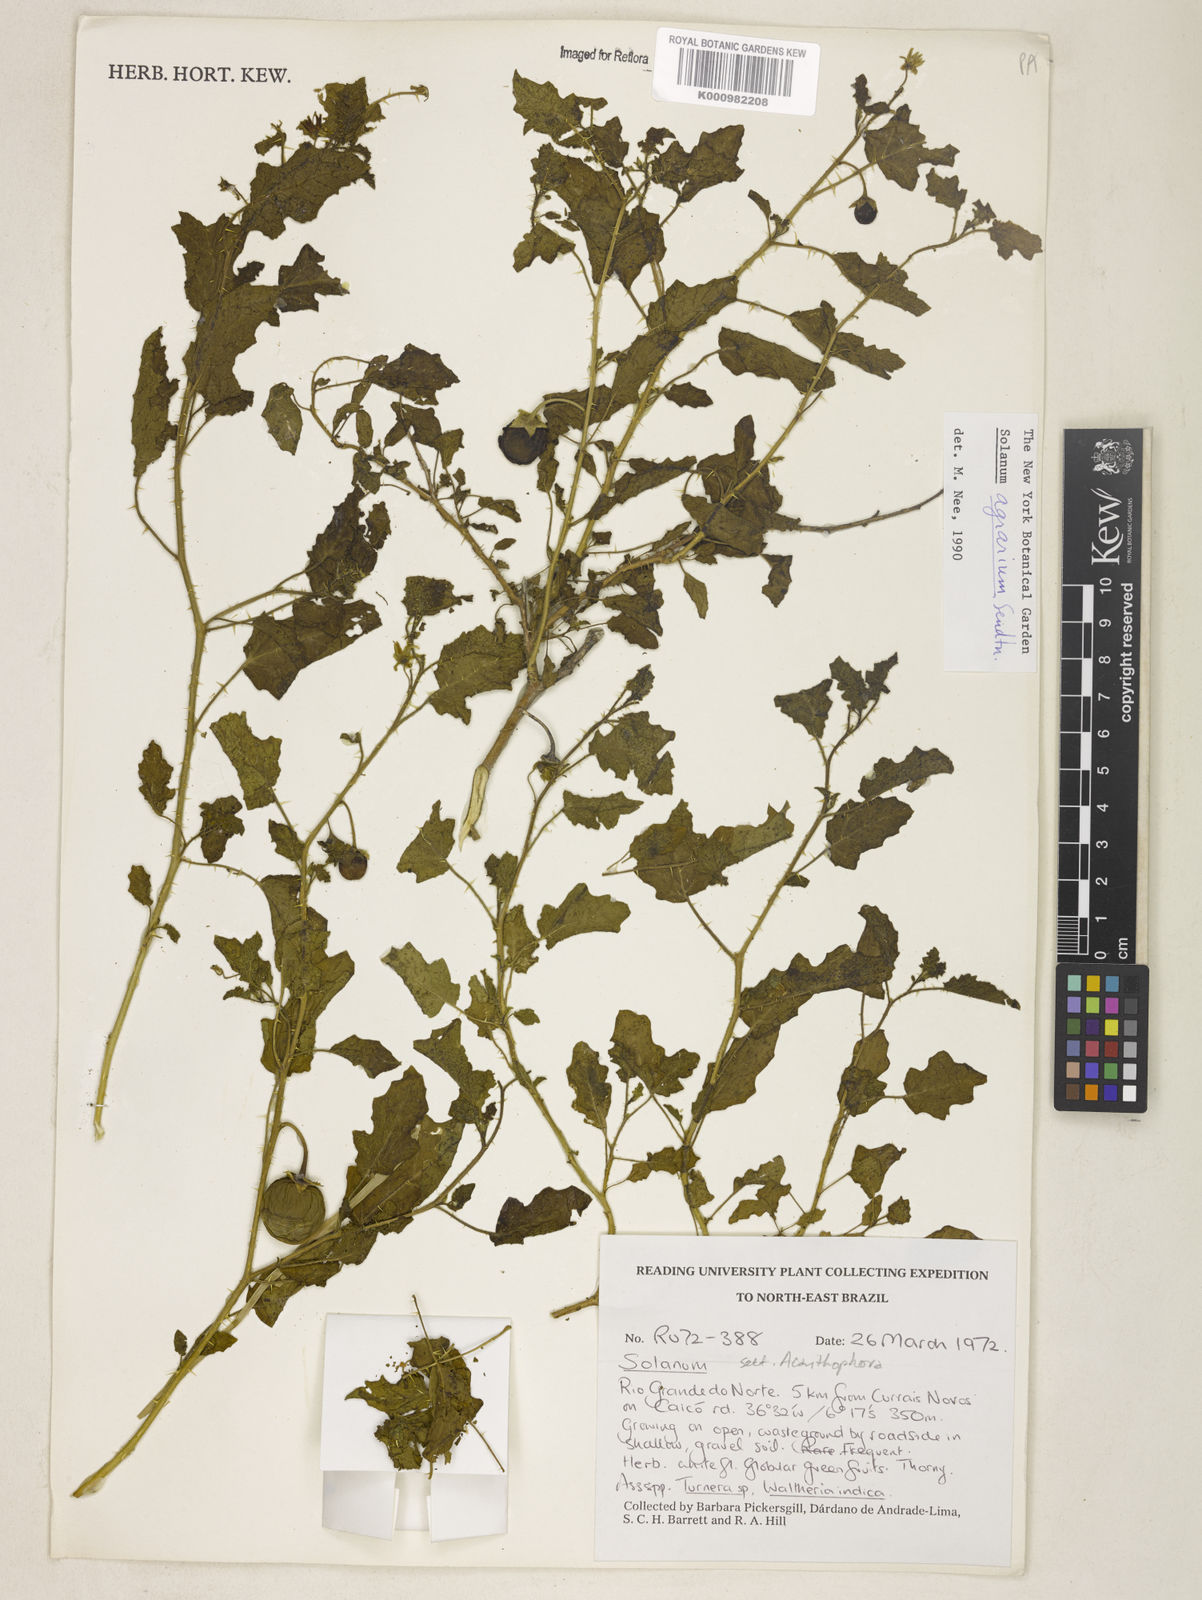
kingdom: Plantae
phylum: Tracheophyta
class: Magnoliopsida
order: Solanales
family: Solanaceae
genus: Solanum
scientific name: Solanum agrarium
